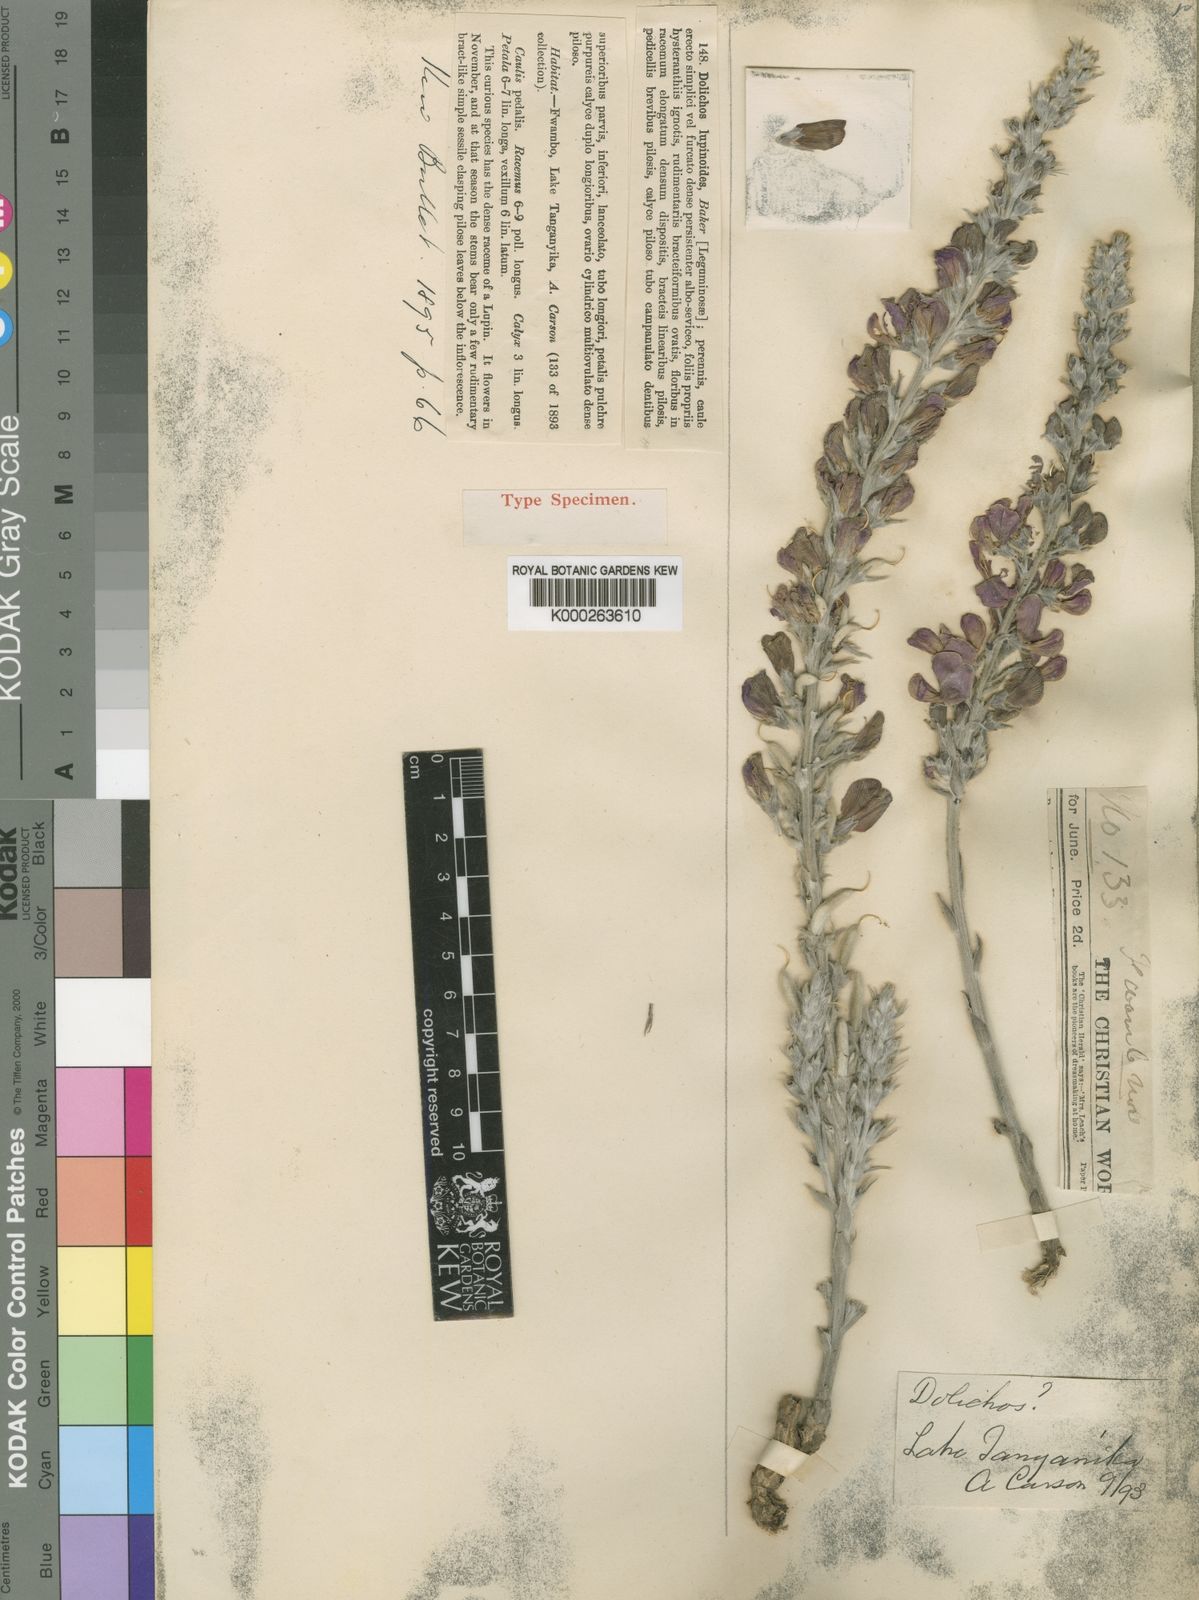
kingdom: Plantae
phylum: Tracheophyta
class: Magnoliopsida
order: Fabales
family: Fabaceae
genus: Dolichos
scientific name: Dolichos kilimandscharicus
